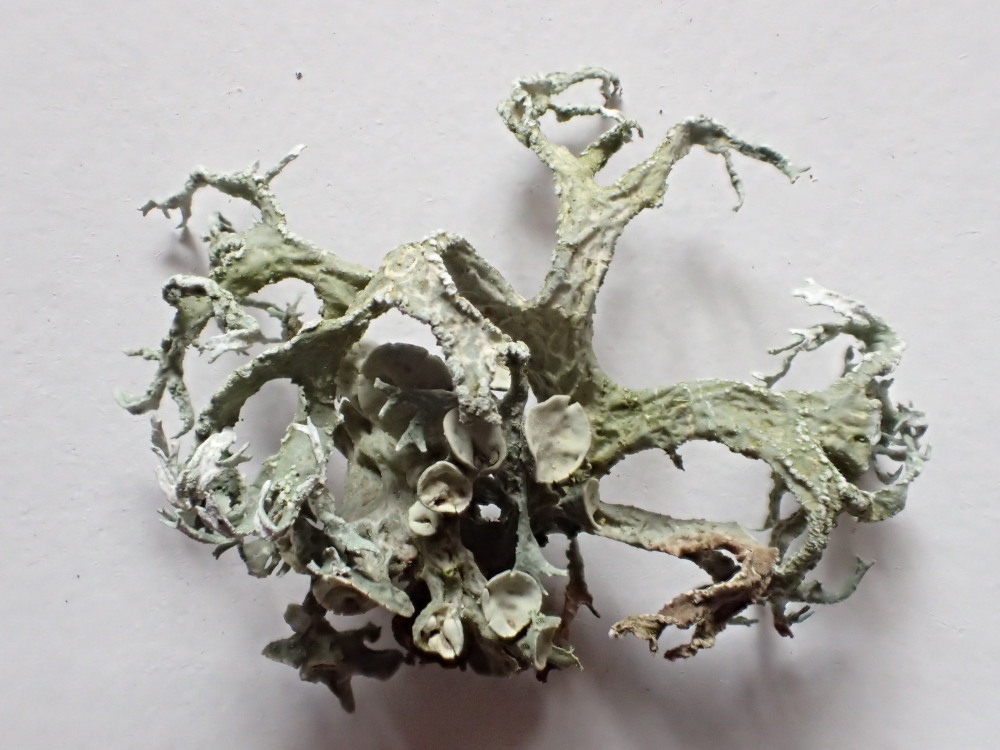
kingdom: Fungi
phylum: Ascomycota
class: Lecanoromycetes
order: Lecanorales
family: Ramalinaceae
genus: Ramalina
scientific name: Ramalina fastigiata
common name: tue-grenlav
